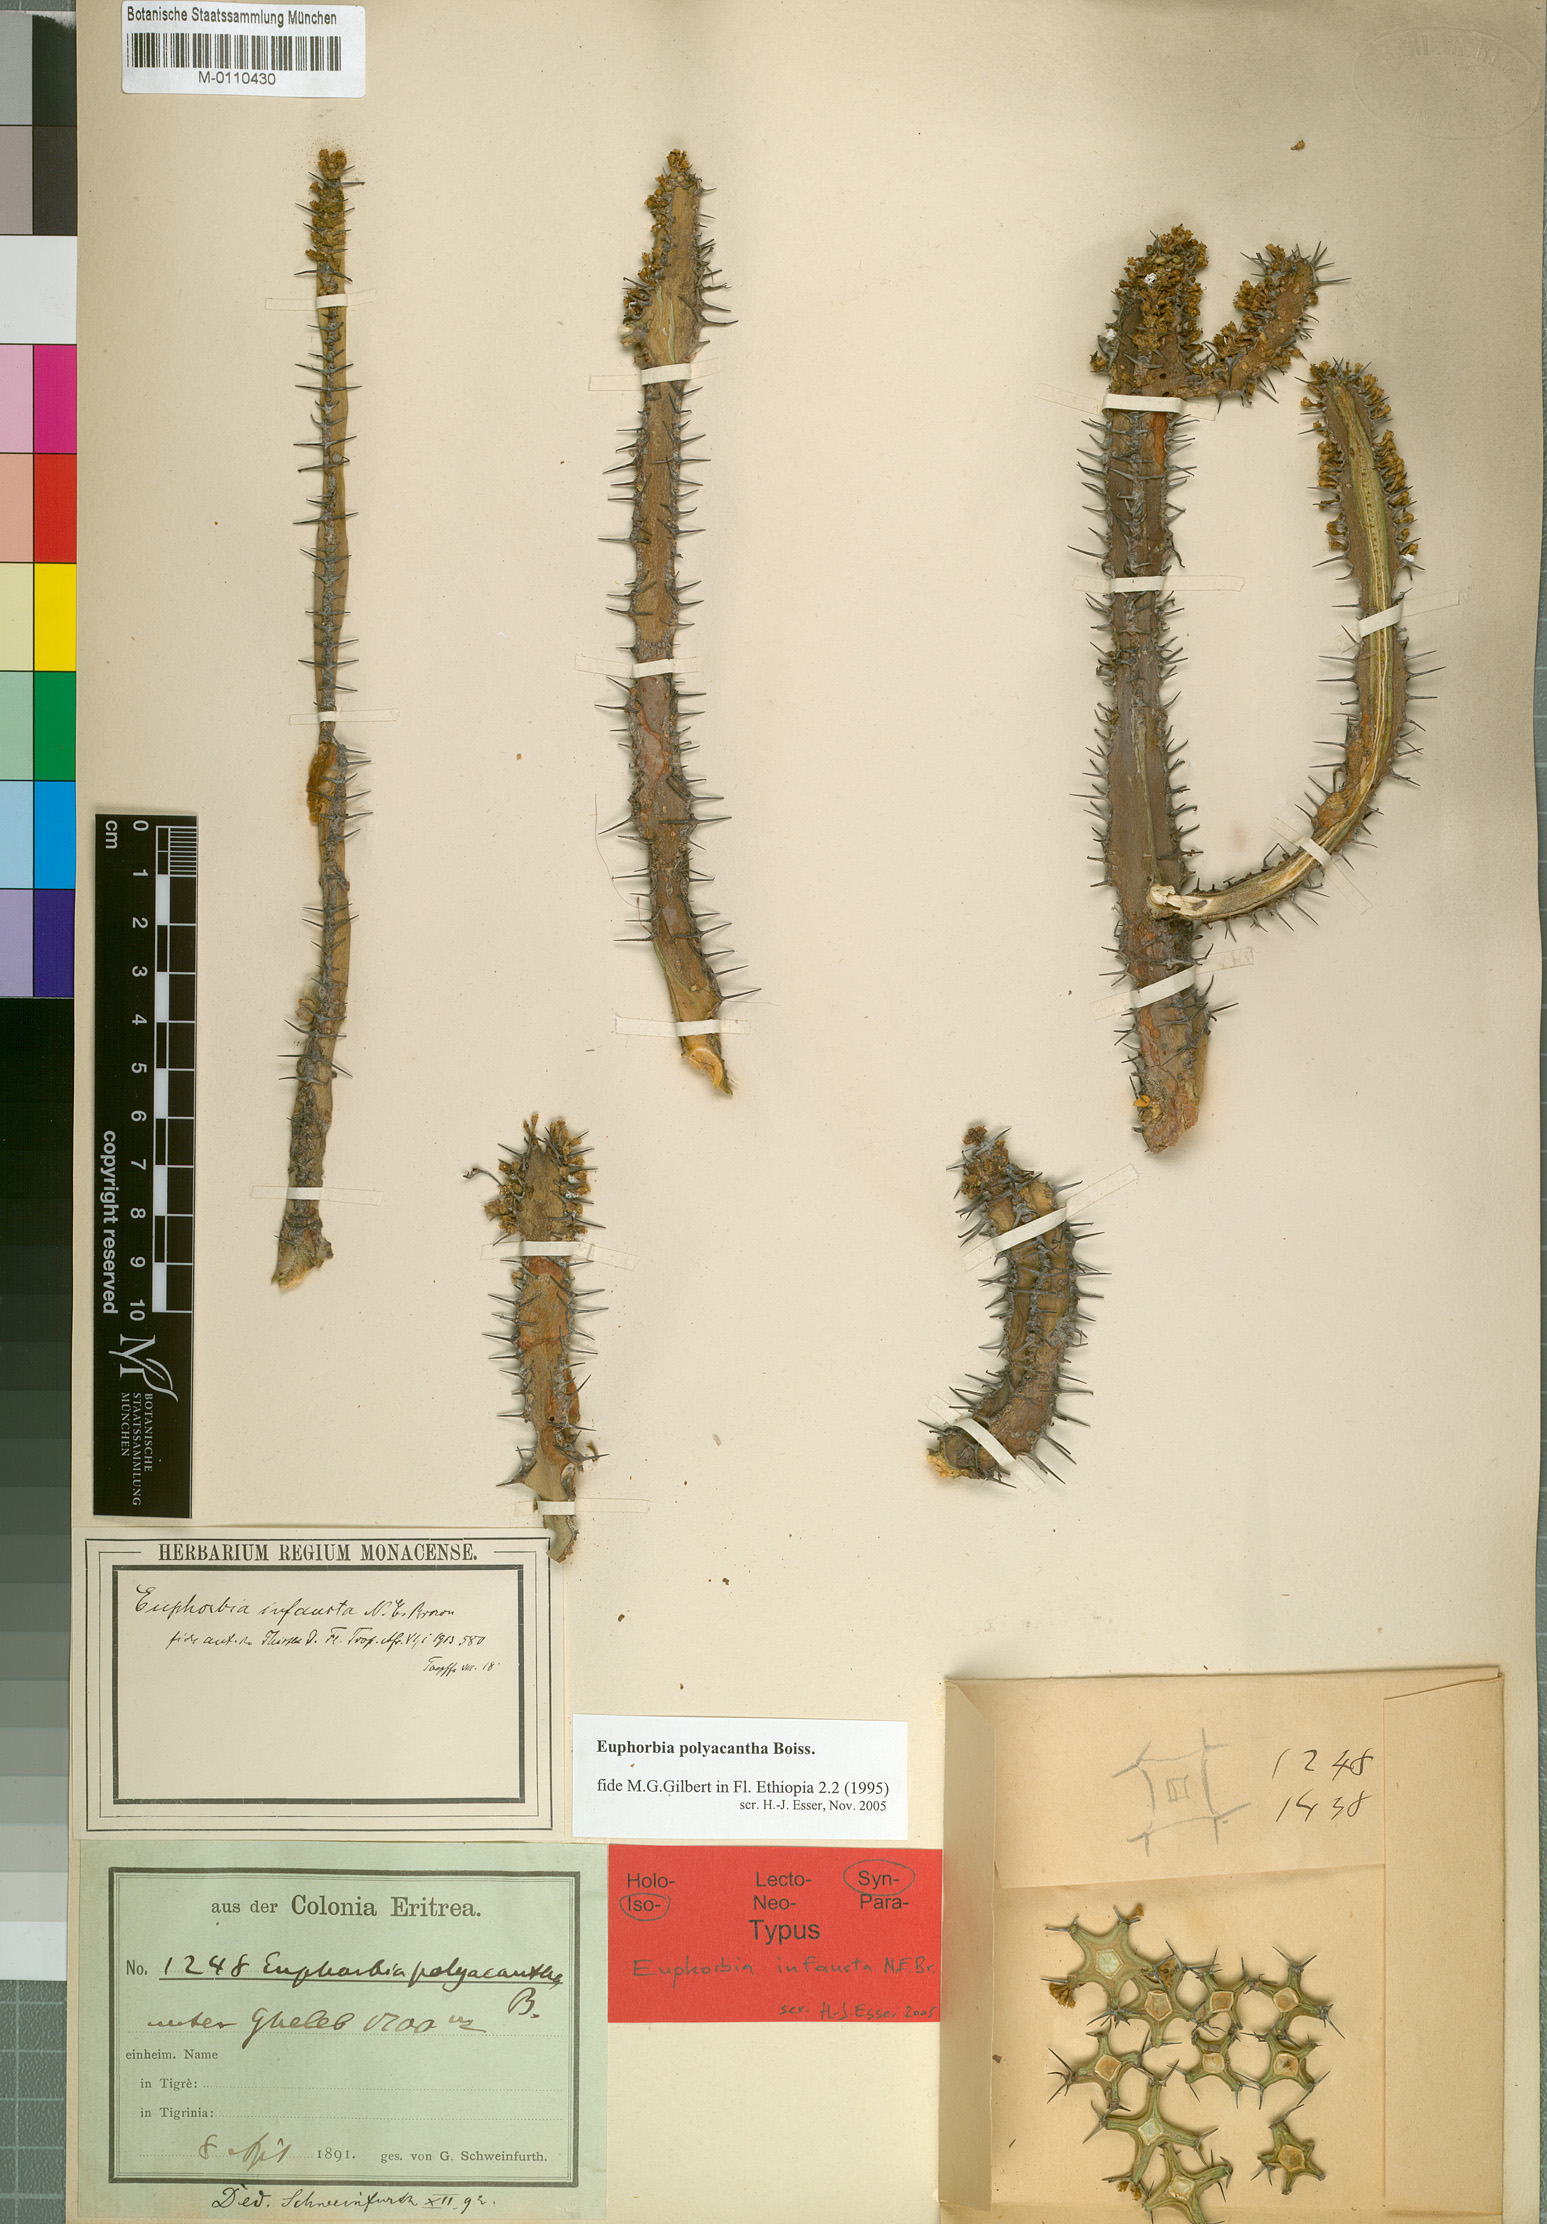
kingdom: Plantae
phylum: Tracheophyta
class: Magnoliopsida
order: Malpighiales
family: Euphorbiaceae
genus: Euphorbia
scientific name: Euphorbia polyacantha
